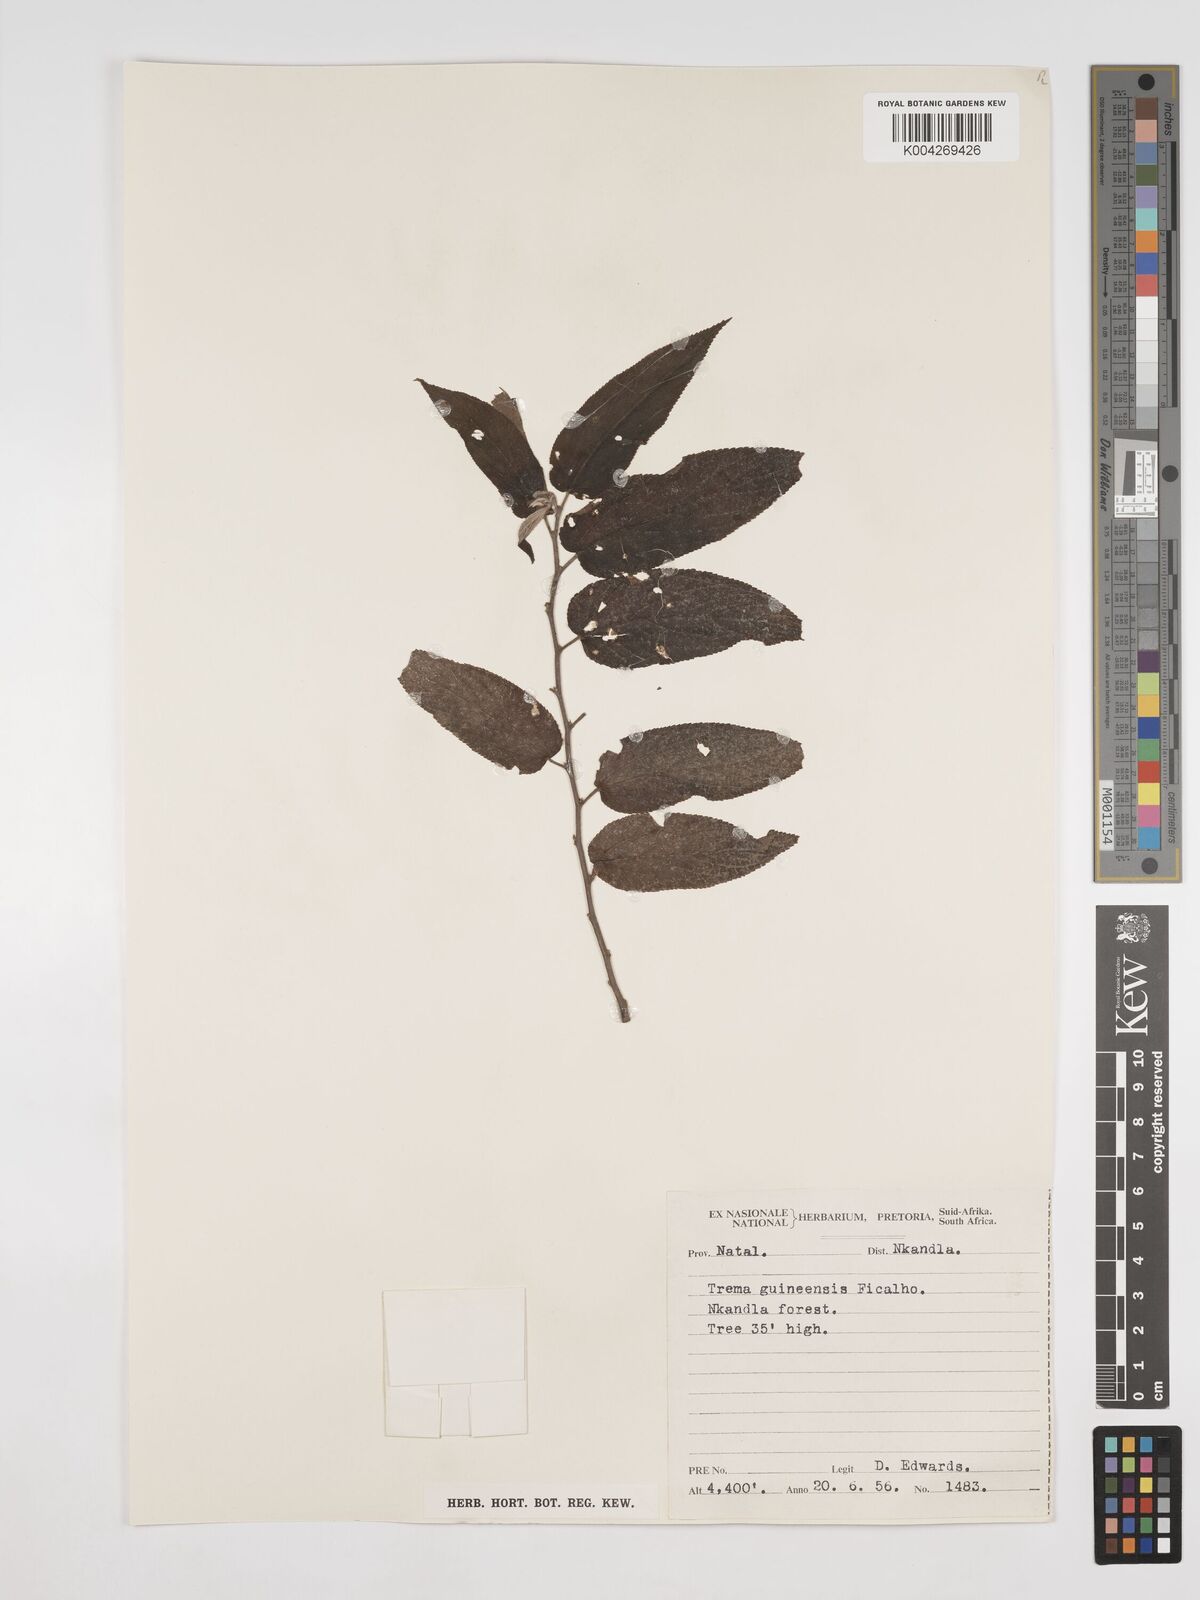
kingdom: Plantae
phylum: Tracheophyta
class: Magnoliopsida
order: Rosales
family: Cannabaceae
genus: Trema
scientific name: Trema orientale
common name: Indian charcoal tree
